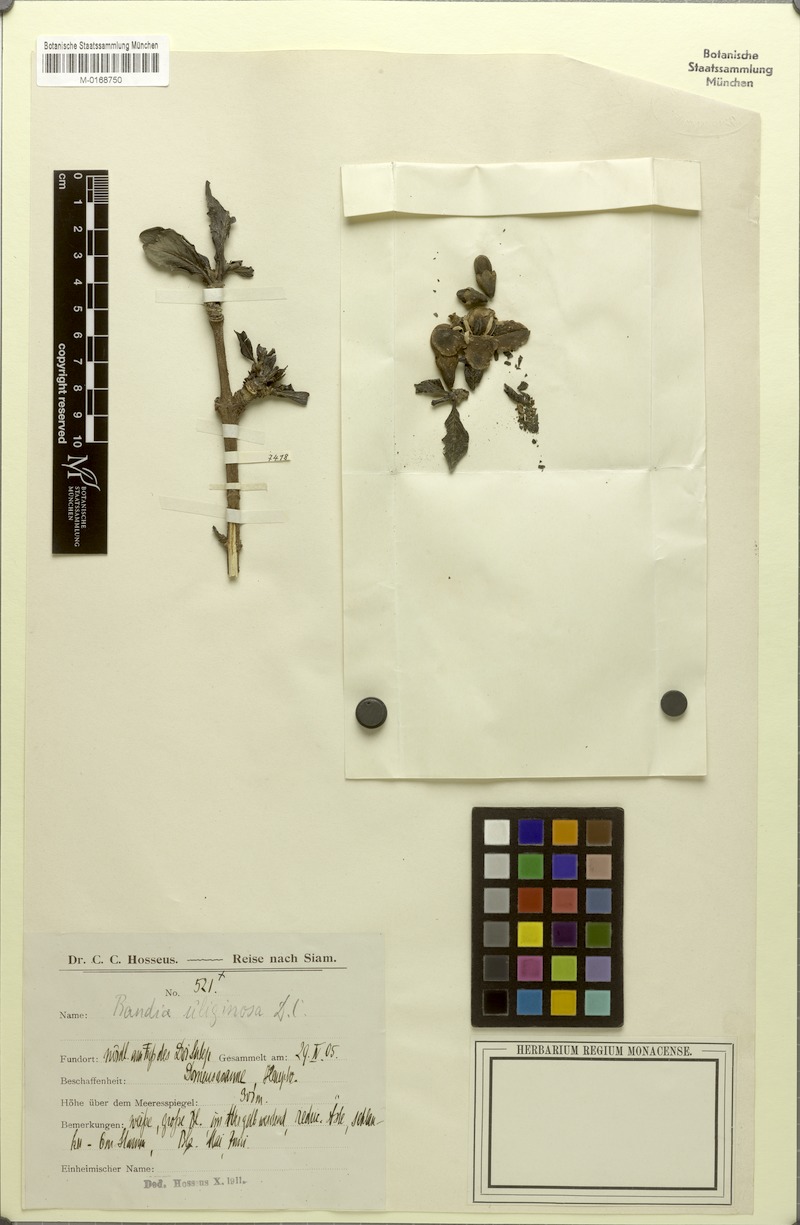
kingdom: Plantae
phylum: Tracheophyta
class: Magnoliopsida
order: Gentianales
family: Rubiaceae
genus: Tamilnadia
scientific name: Tamilnadia uliginosa
